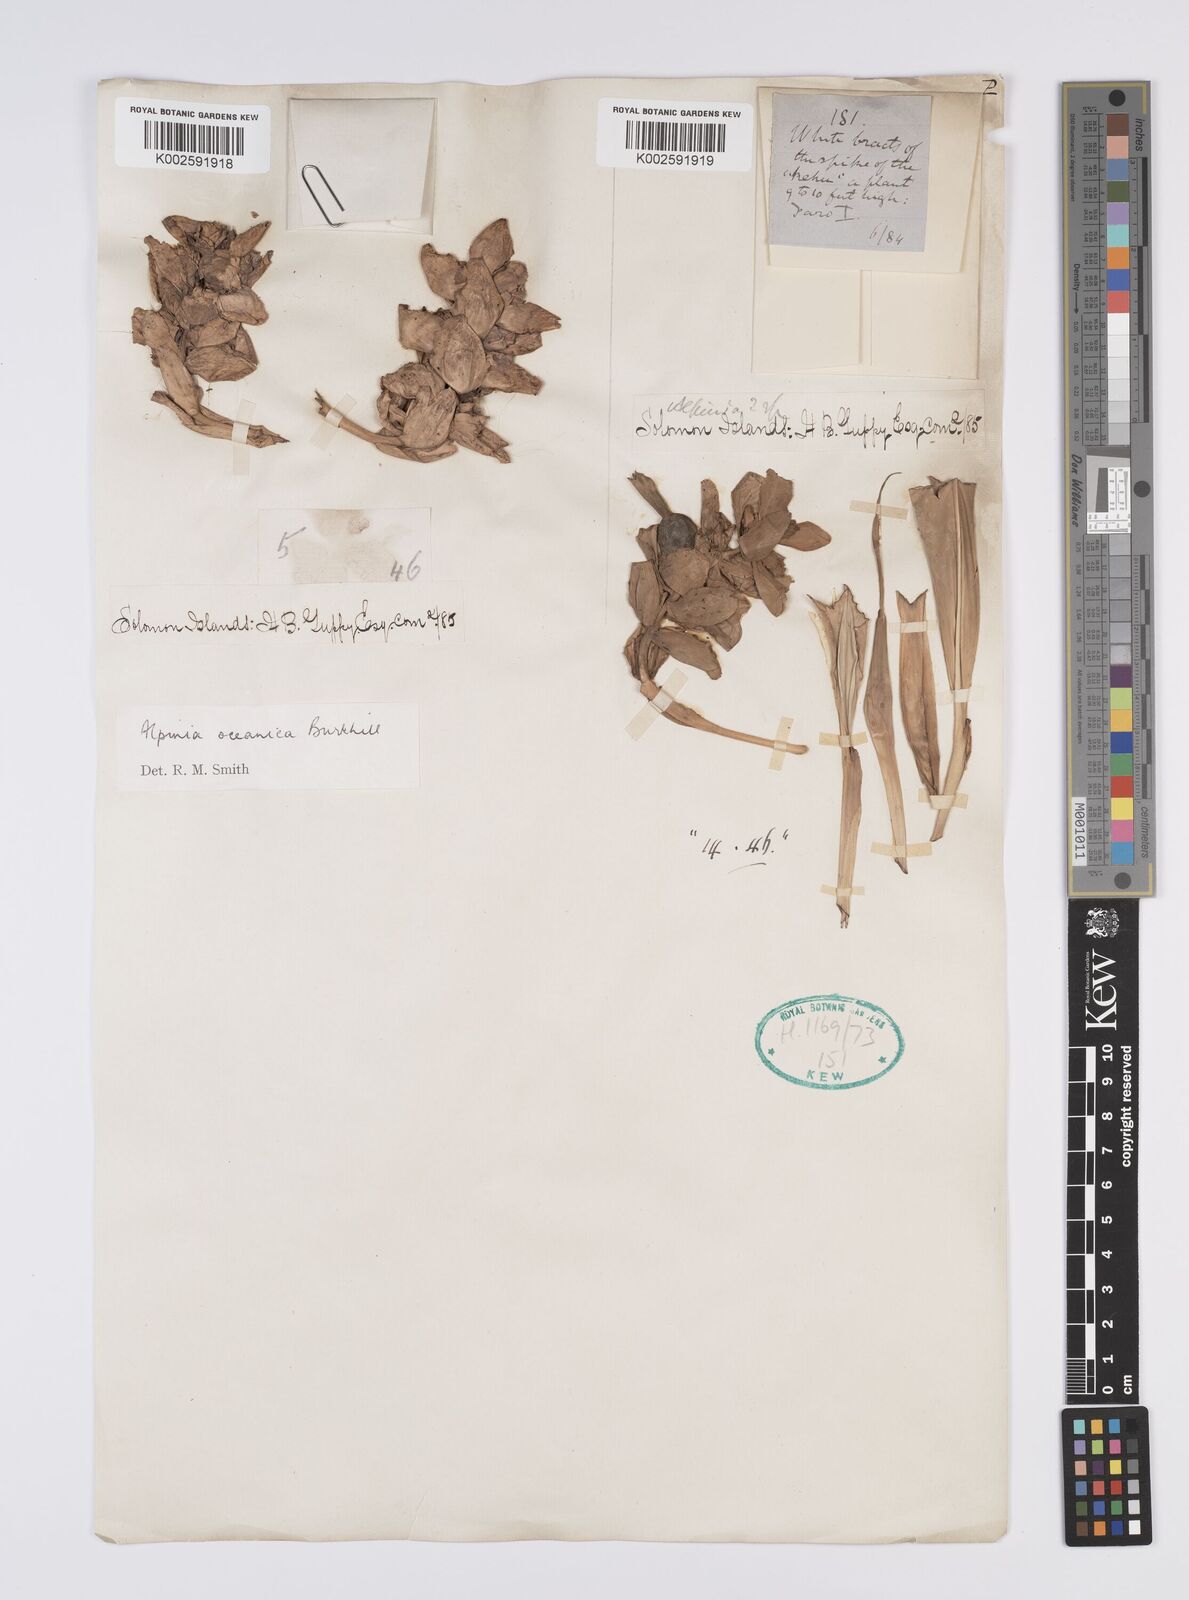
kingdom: Plantae
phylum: Tracheophyta
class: Liliopsida
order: Zingiberales
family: Zingiberaceae
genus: Alpinia
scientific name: Alpinia oceanica
